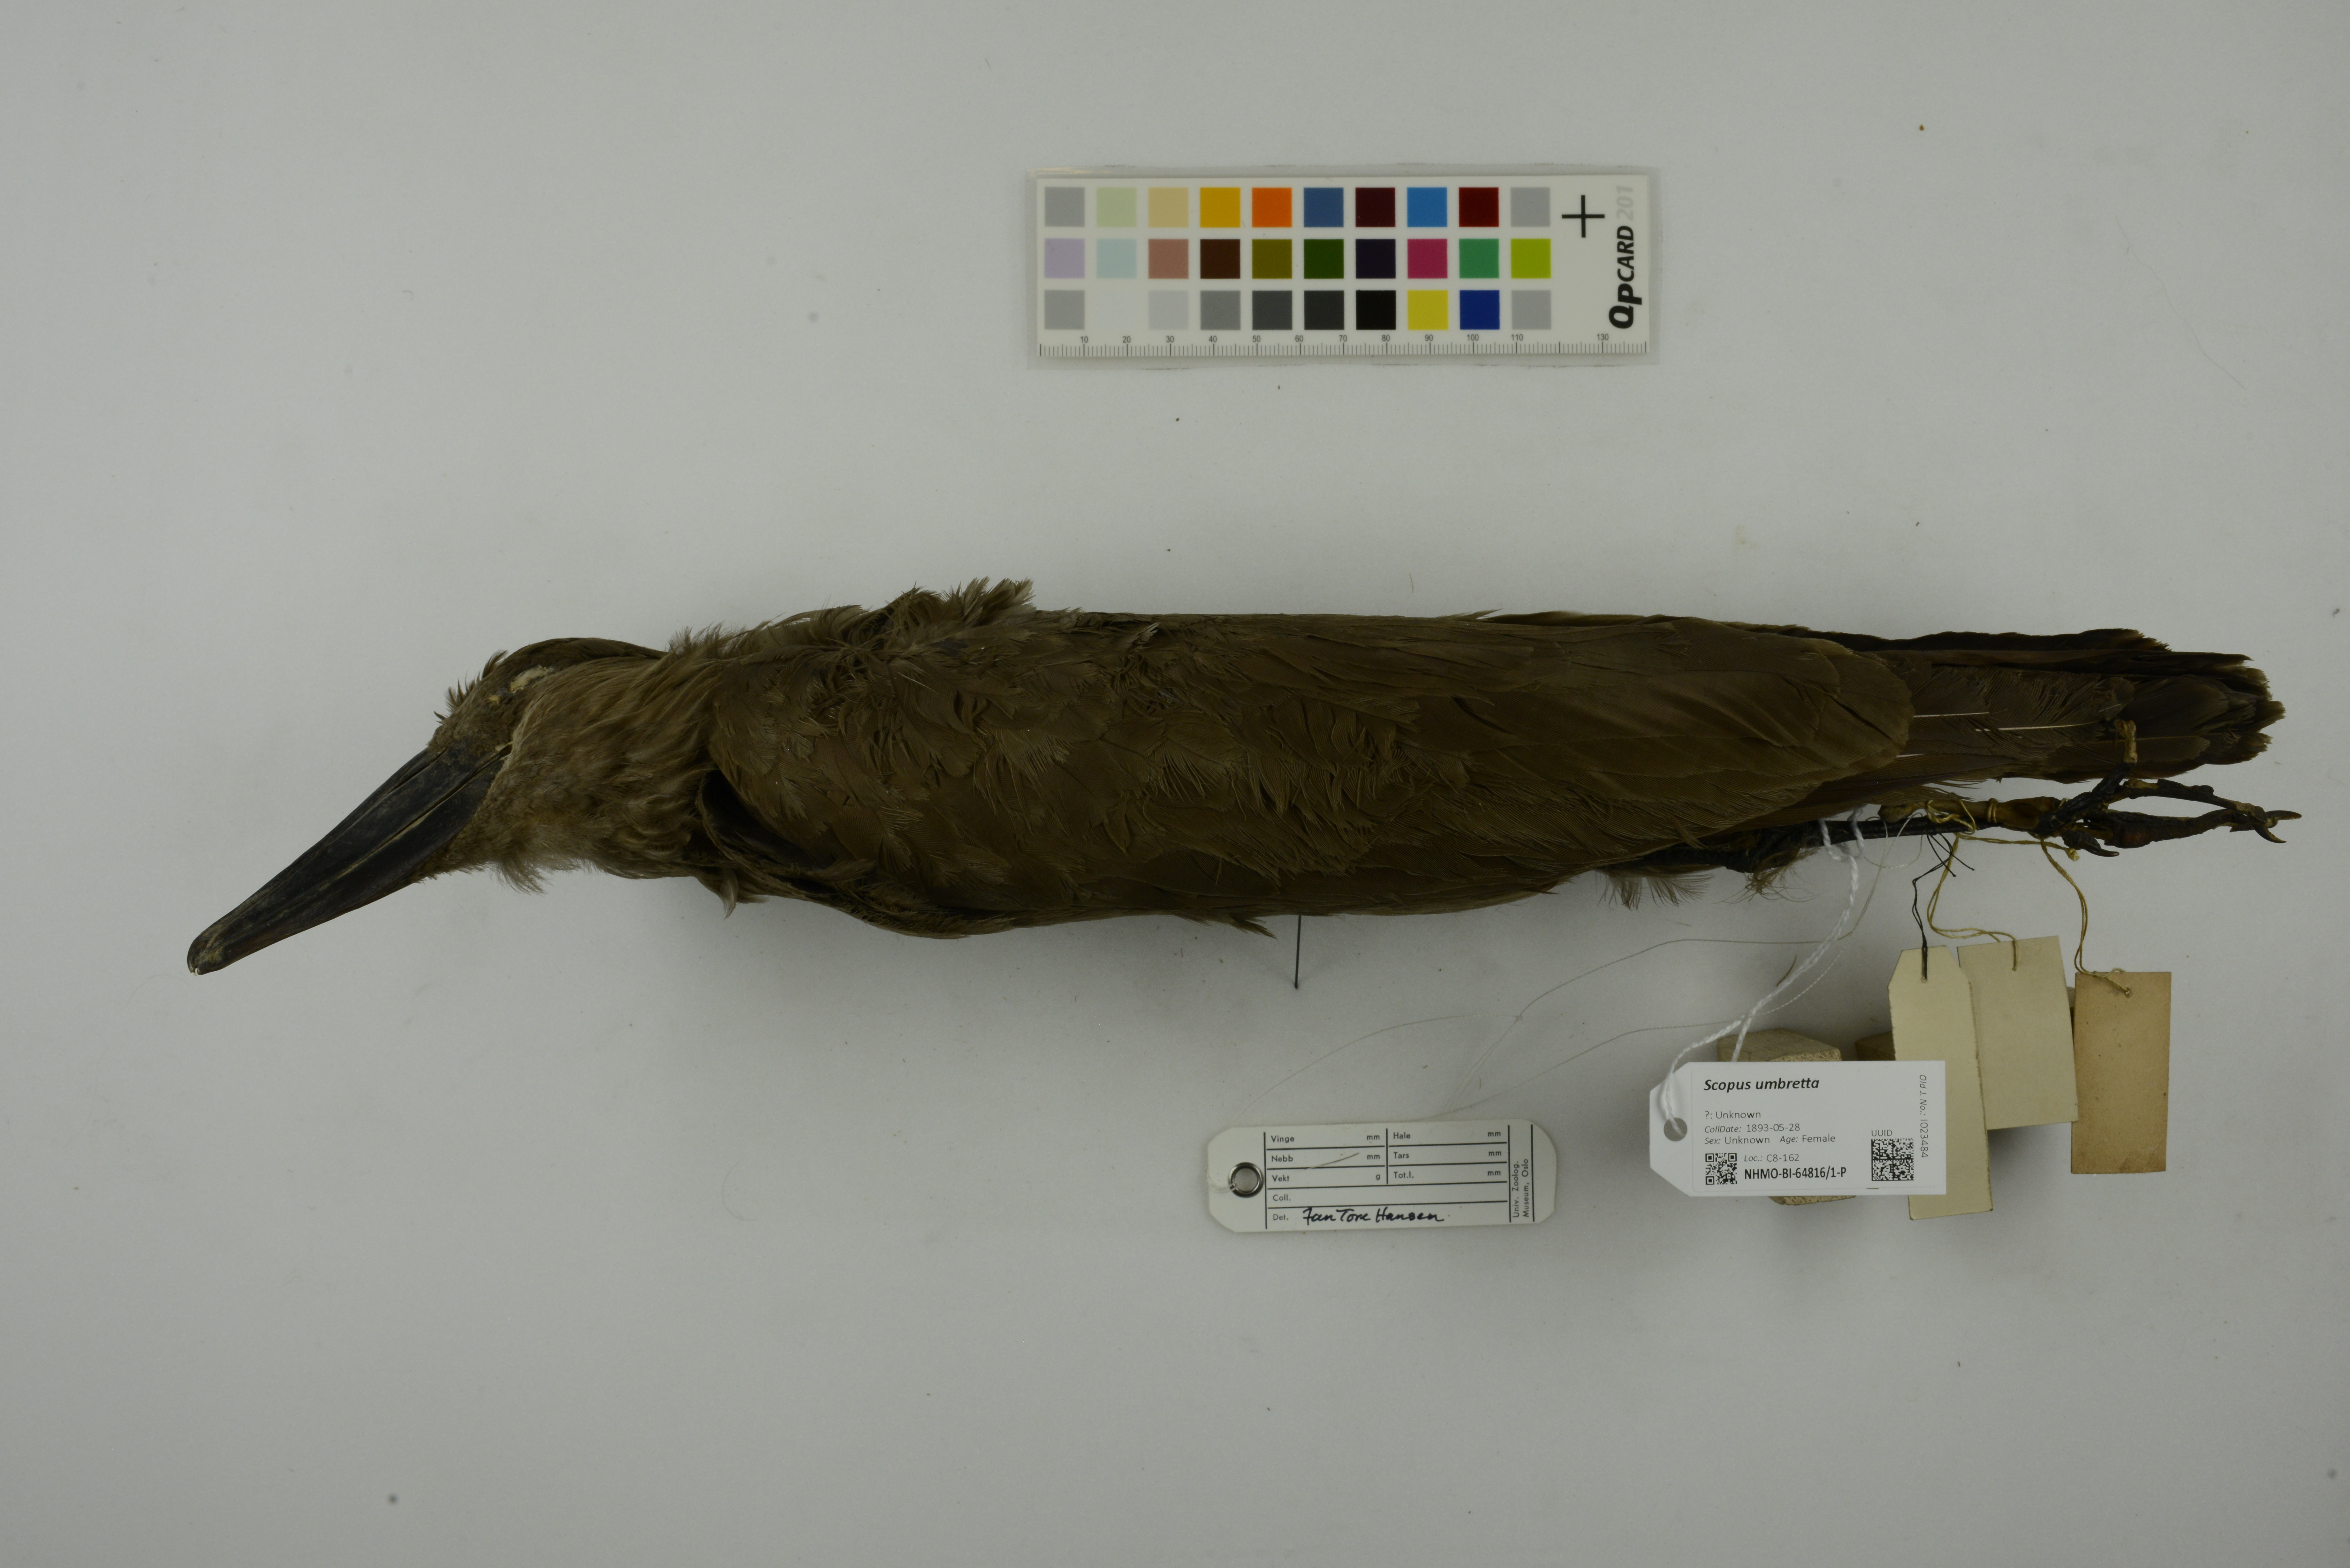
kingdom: Animalia
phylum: Chordata
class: Aves
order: Pelecaniformes
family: Scopidae
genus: Scopus
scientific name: Scopus umbretta
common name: Hamerkop
